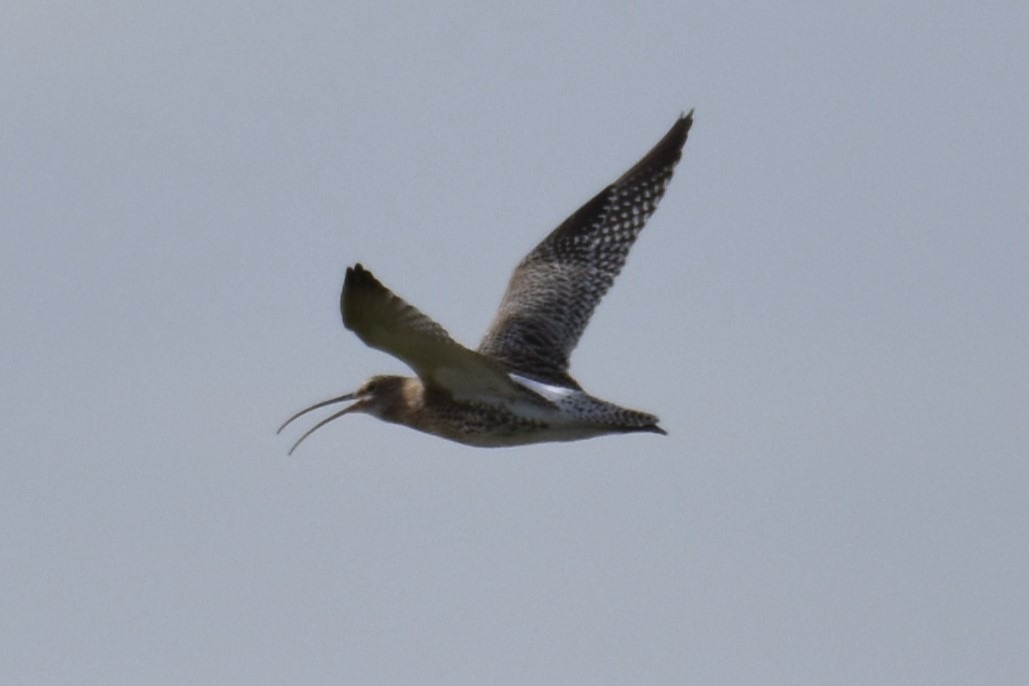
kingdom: Animalia
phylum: Chordata
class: Aves
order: Charadriiformes
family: Scolopacidae
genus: Numenius
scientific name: Numenius arquata
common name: Storspove
